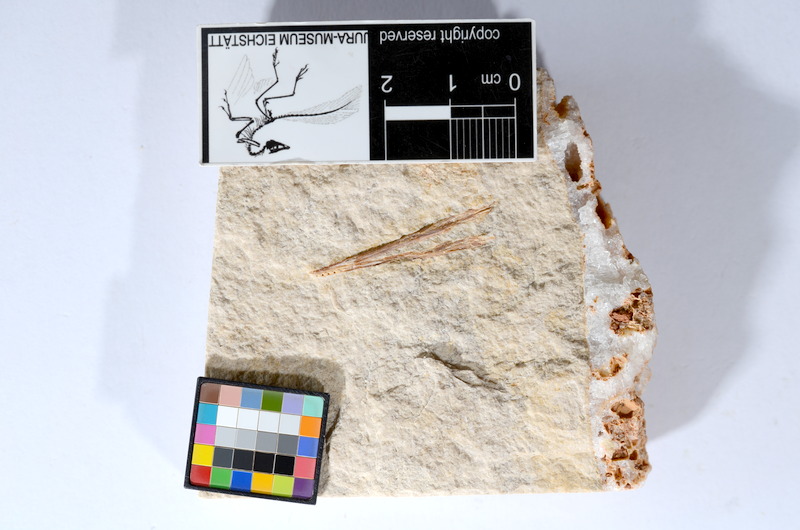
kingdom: Animalia
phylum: Chordata
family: Aspidorhynchidae
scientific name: Aspidorhynchidae
